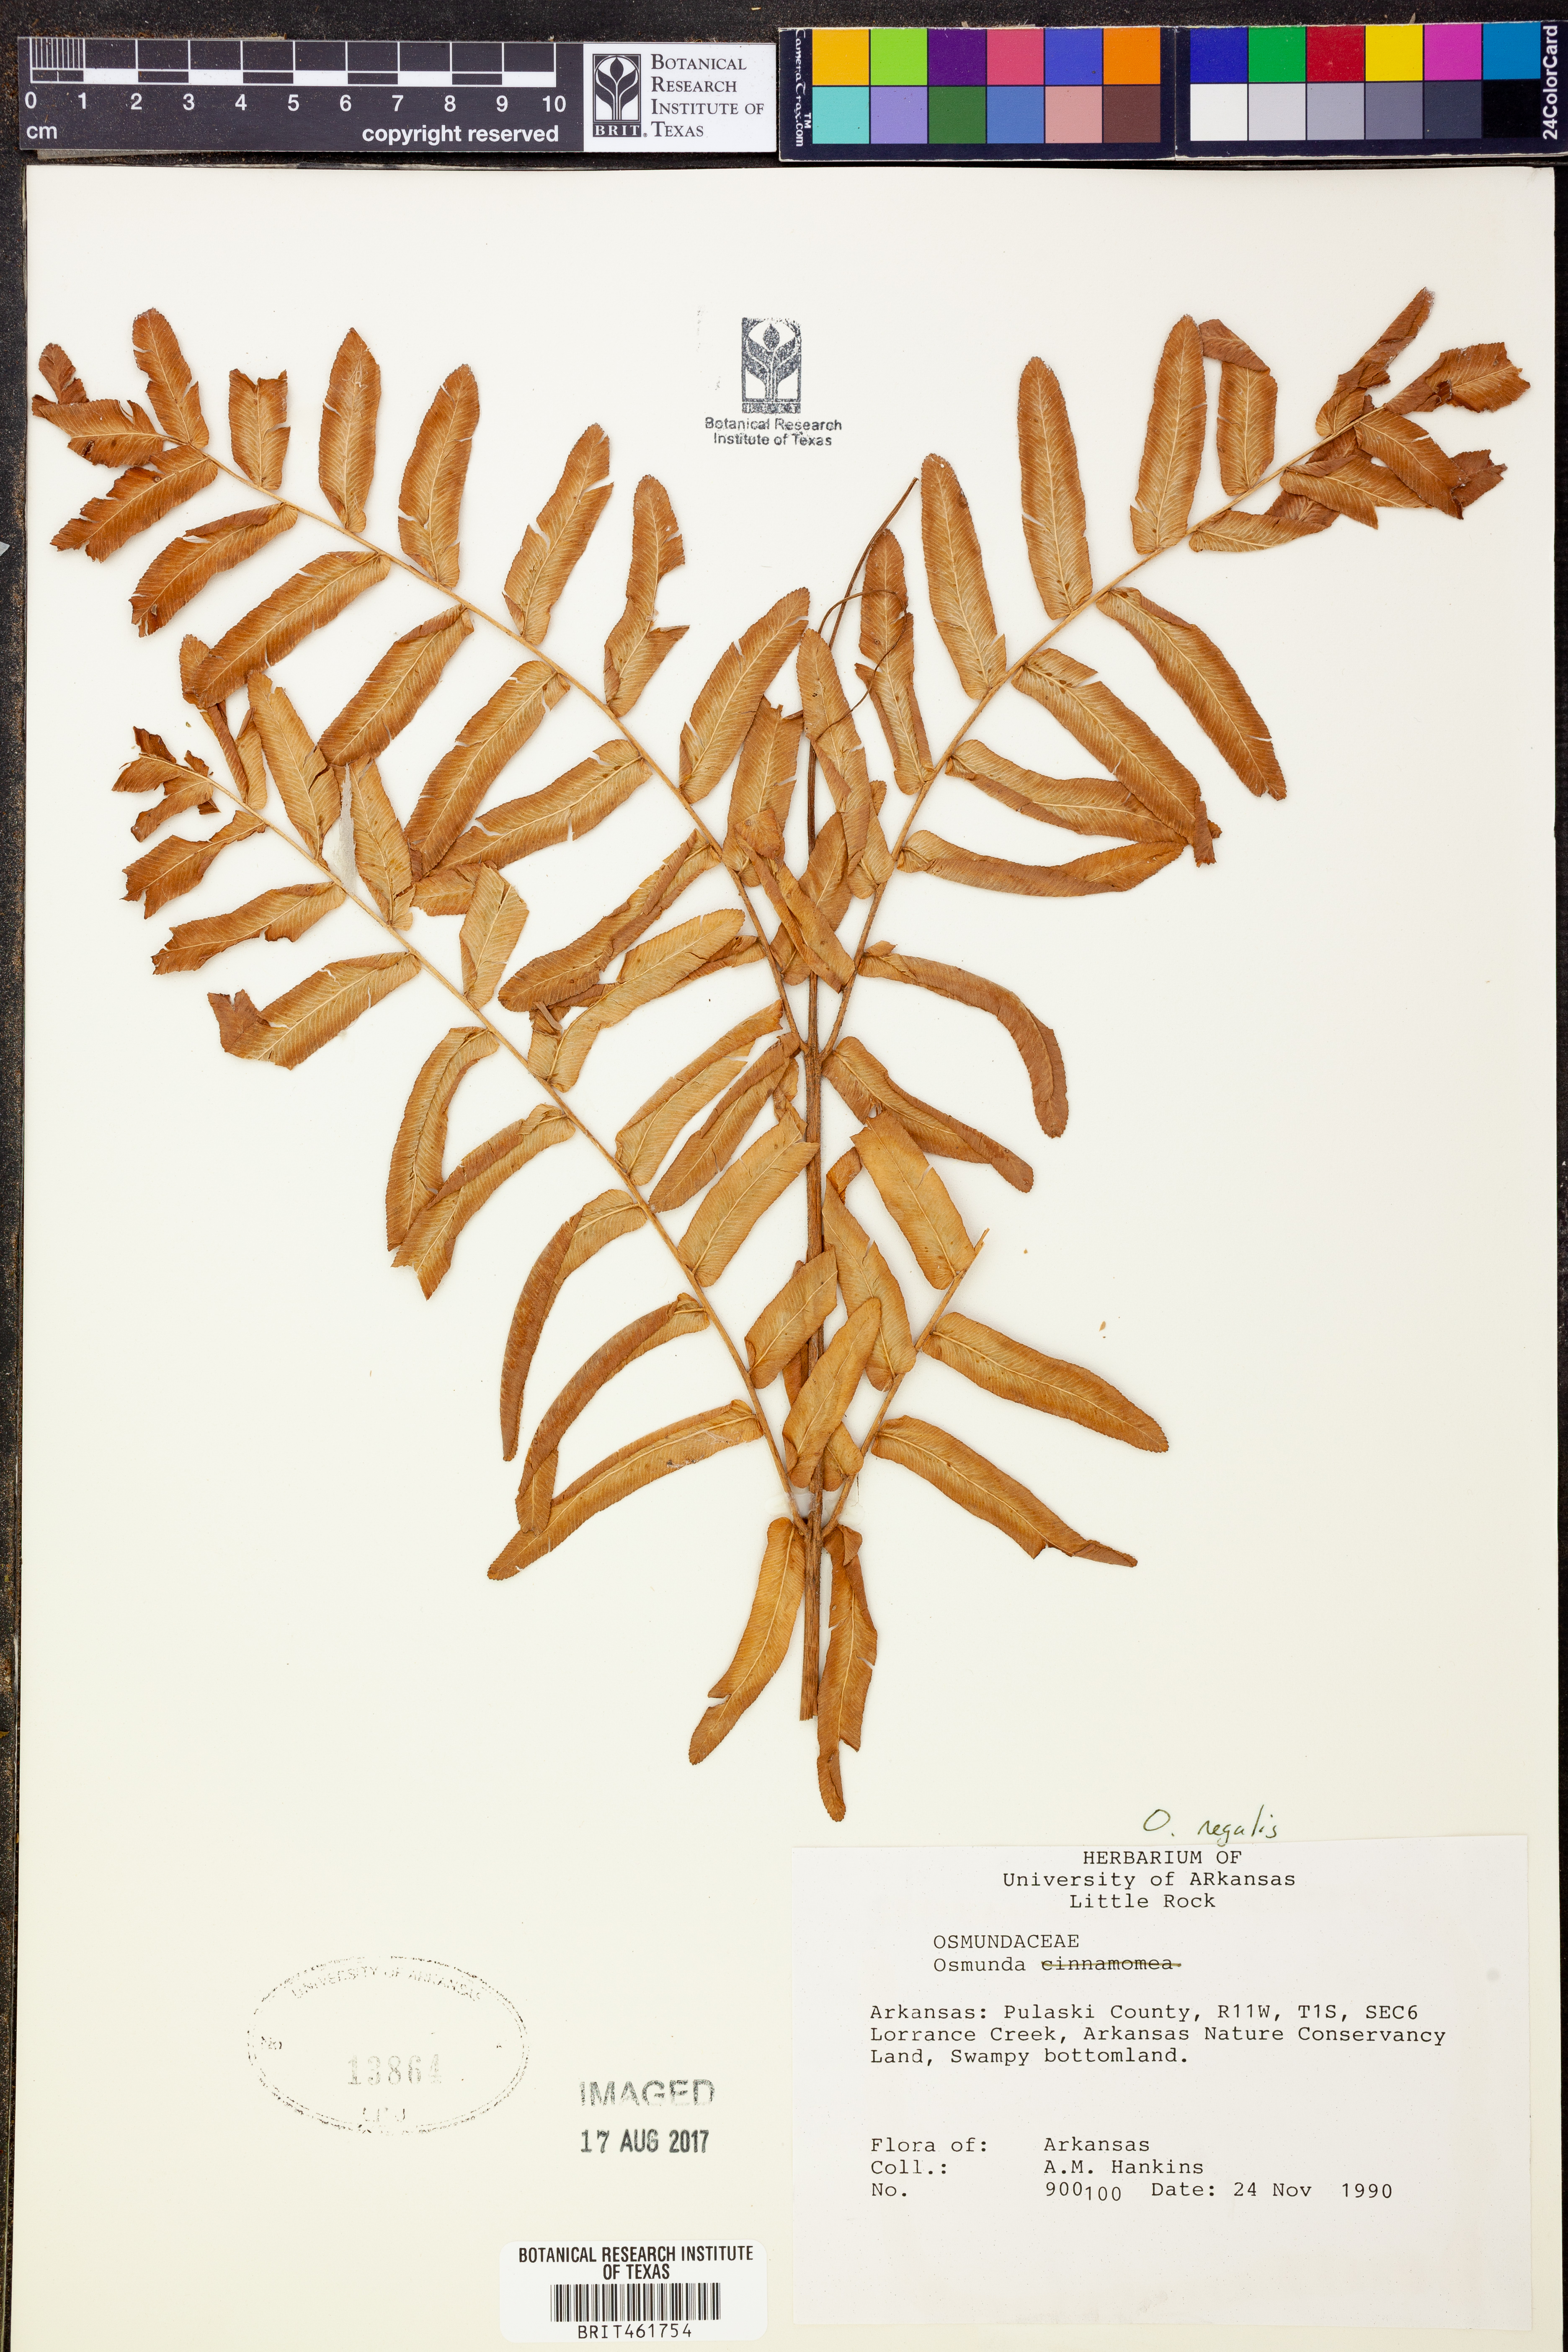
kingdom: Plantae
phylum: Tracheophyta
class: Polypodiopsida
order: Osmundales
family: Osmundaceae
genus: Osmunda
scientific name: Osmunda regalis
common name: Royal fern
